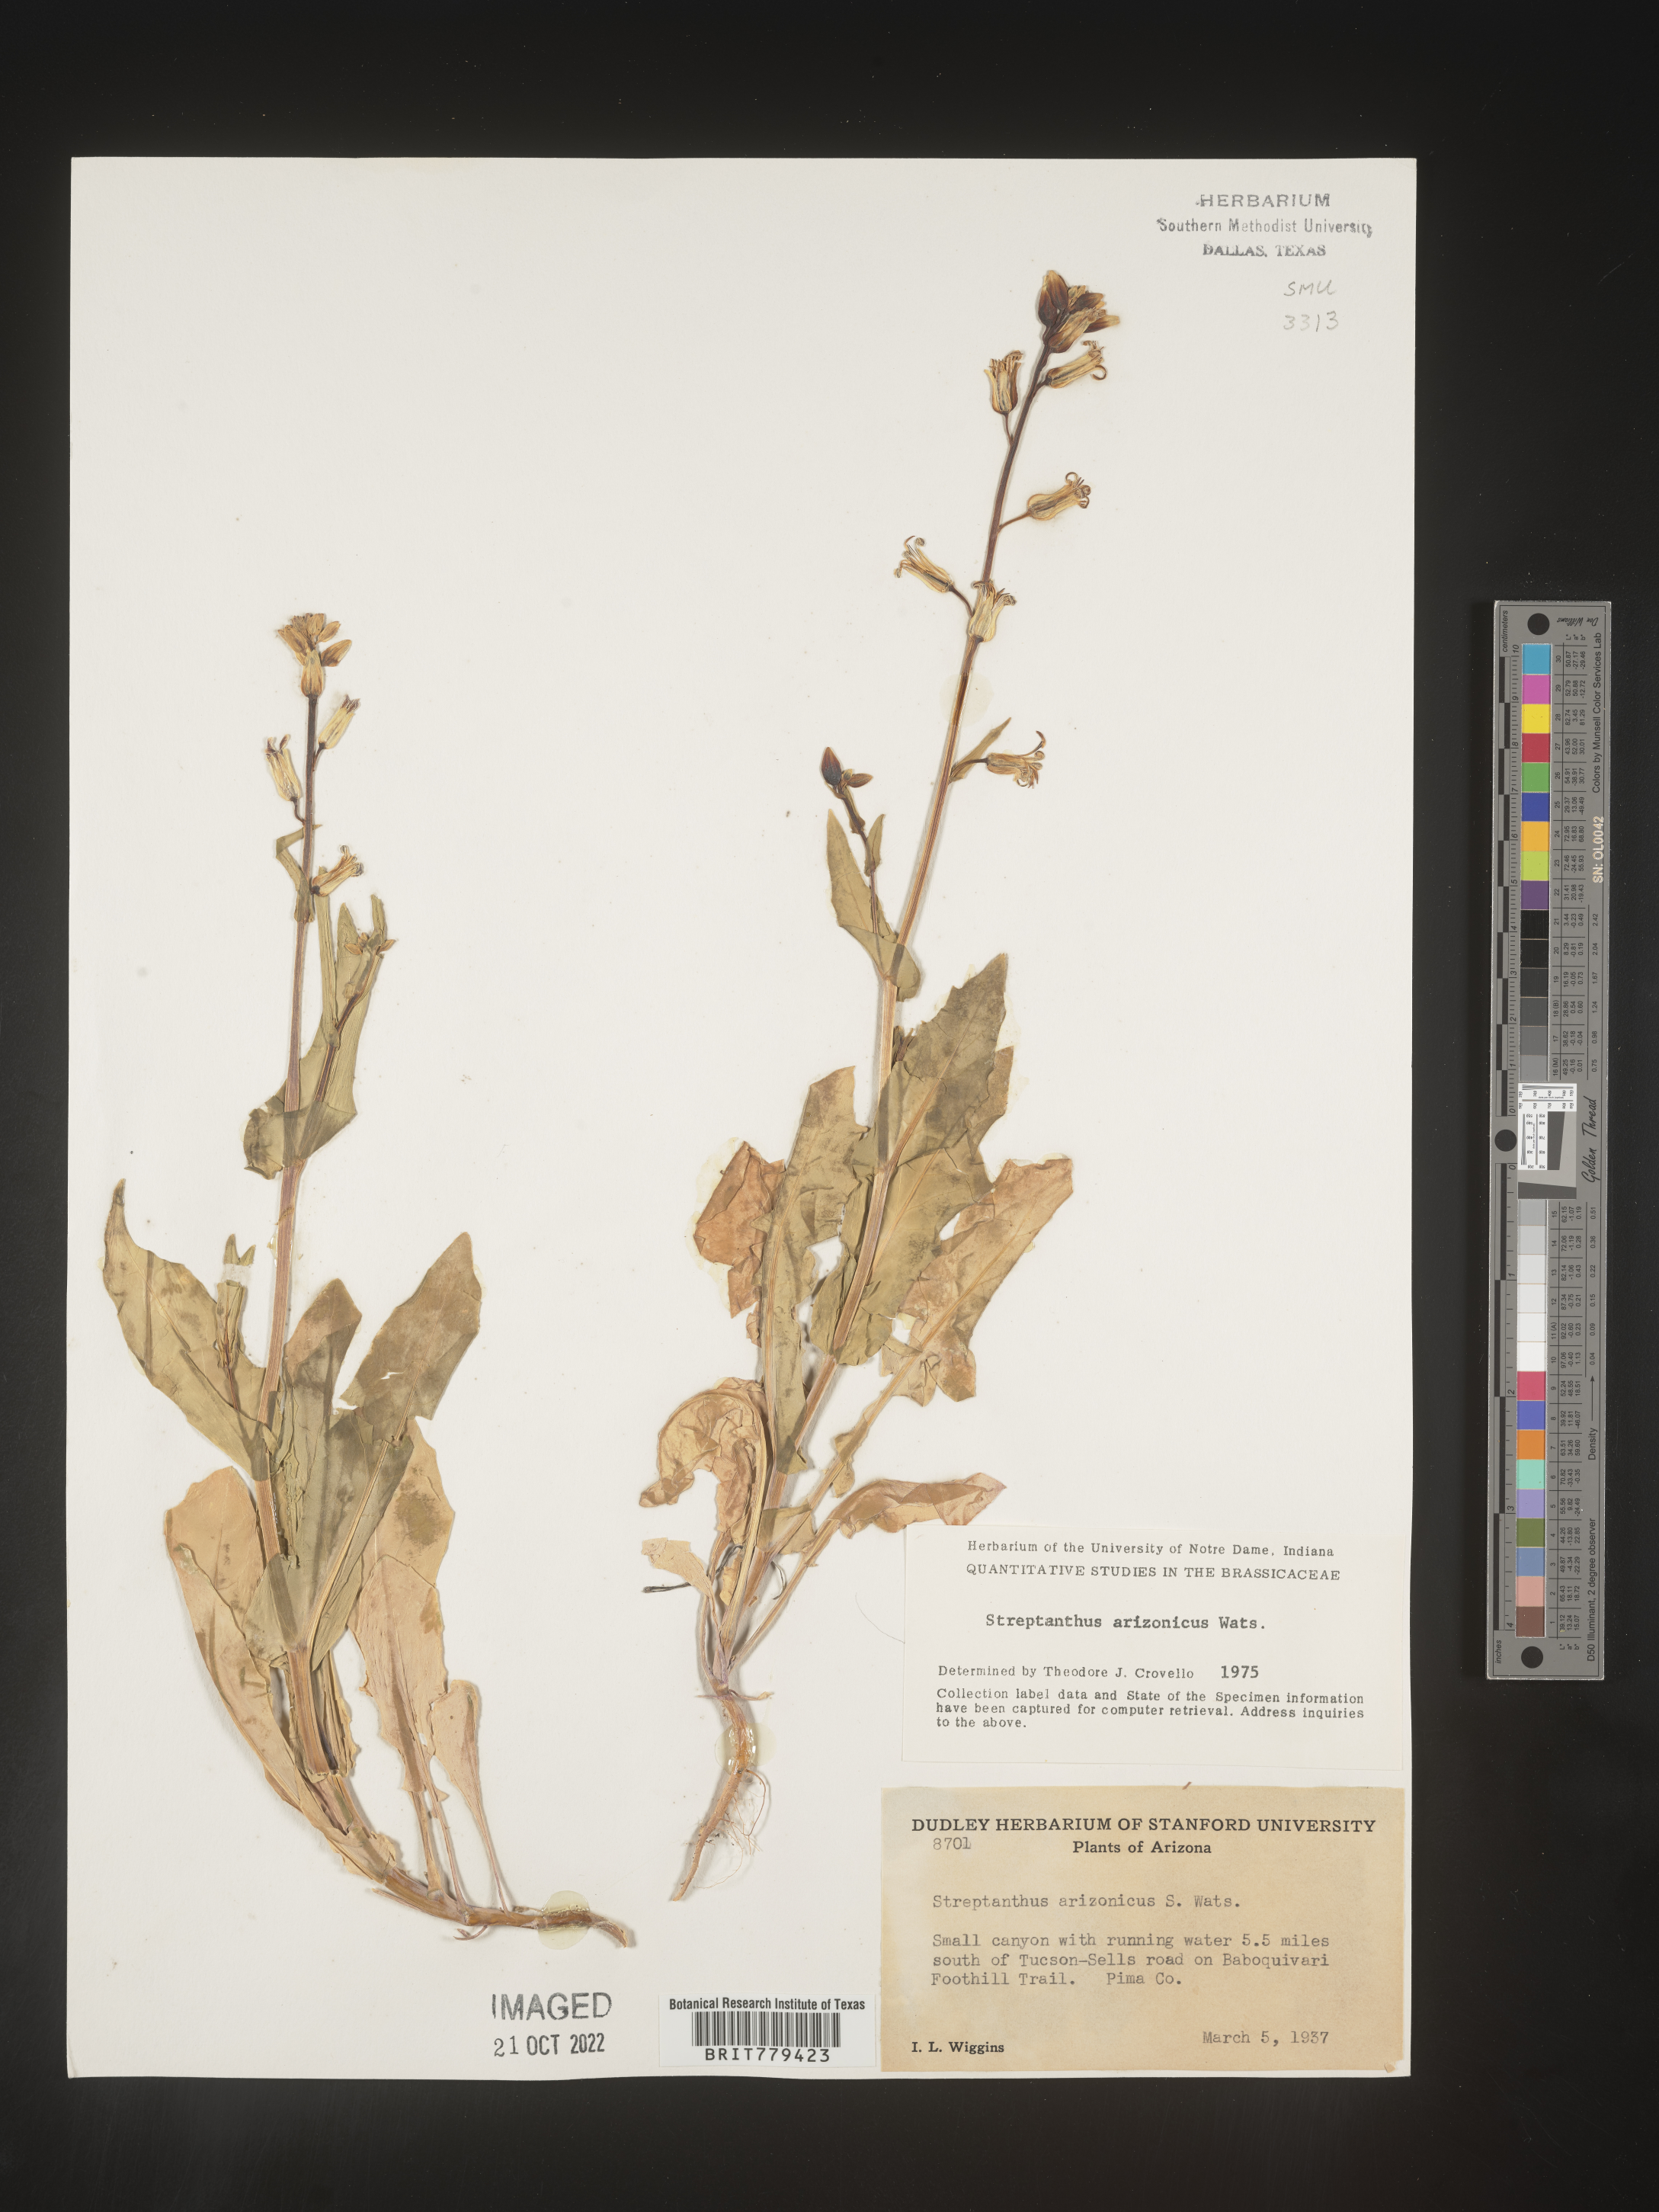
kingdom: Plantae
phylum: Tracheophyta
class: Magnoliopsida
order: Brassicales
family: Brassicaceae
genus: Streptanthus
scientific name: Streptanthus
